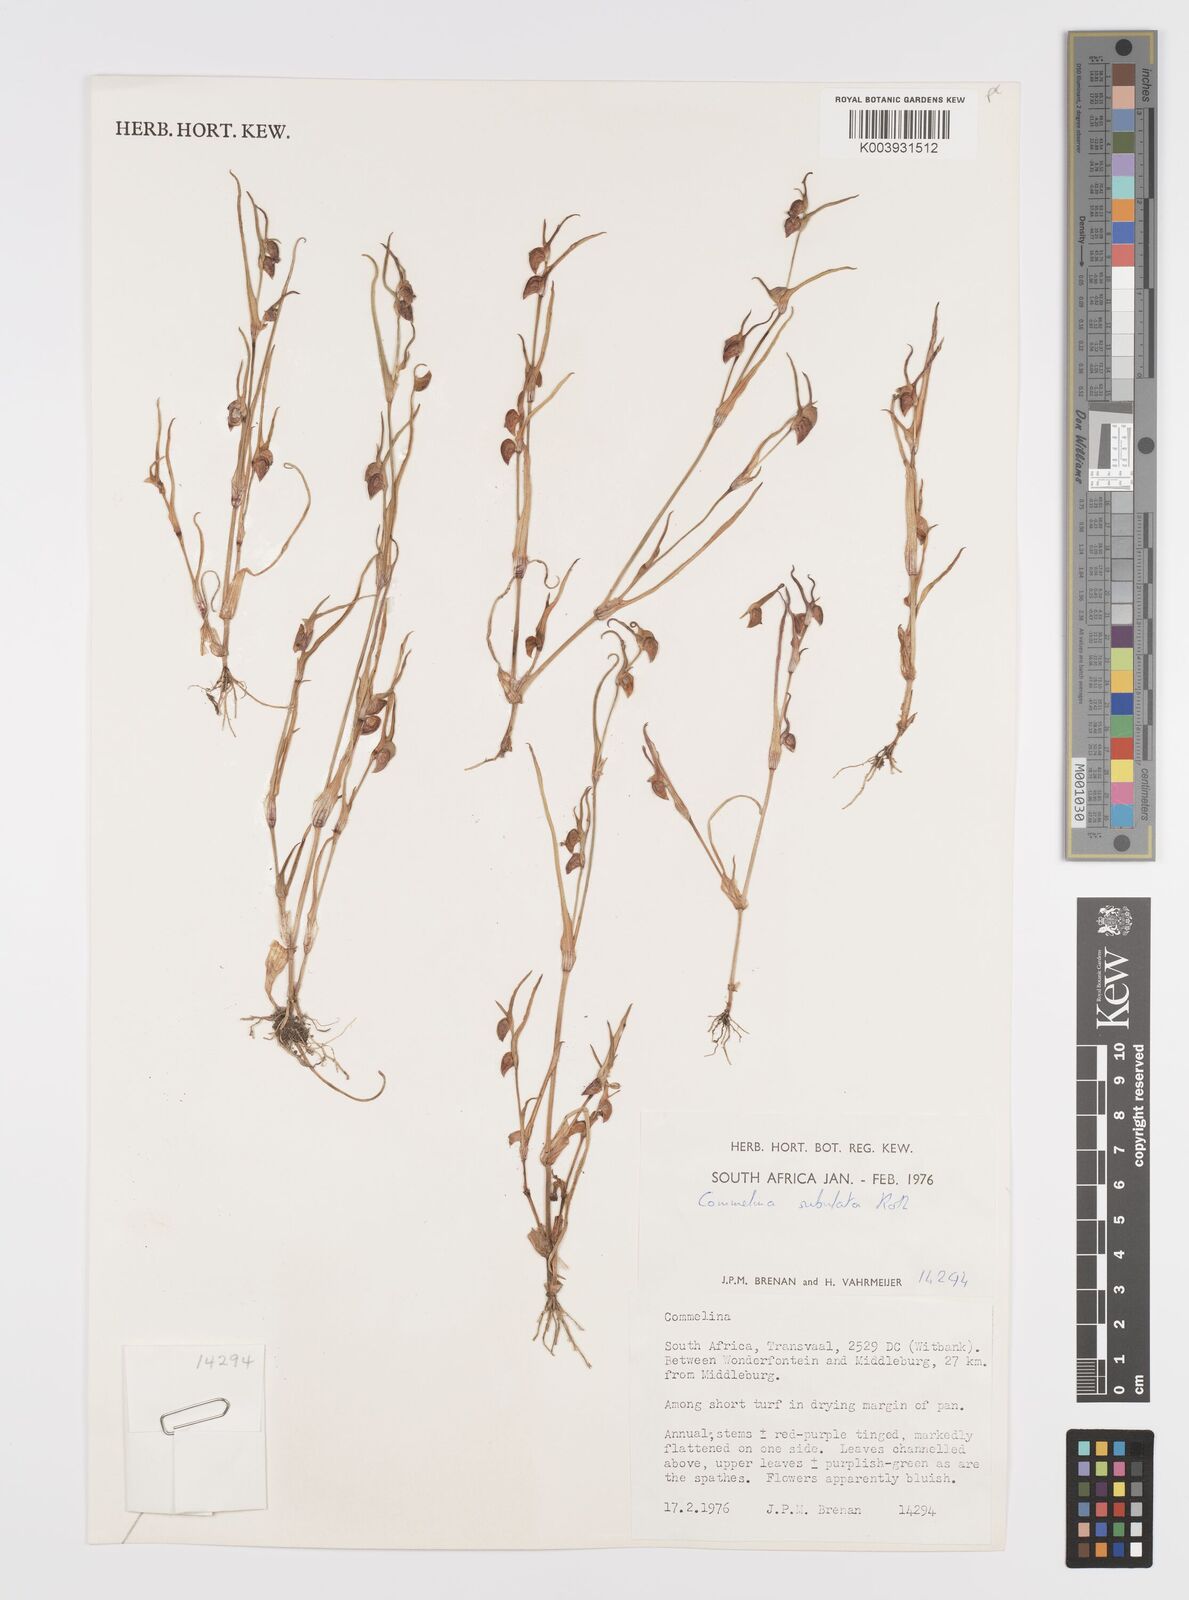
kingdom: Plantae
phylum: Tracheophyta
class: Liliopsida
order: Commelinales
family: Commelinaceae
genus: Commelina
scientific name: Commelina subulata
